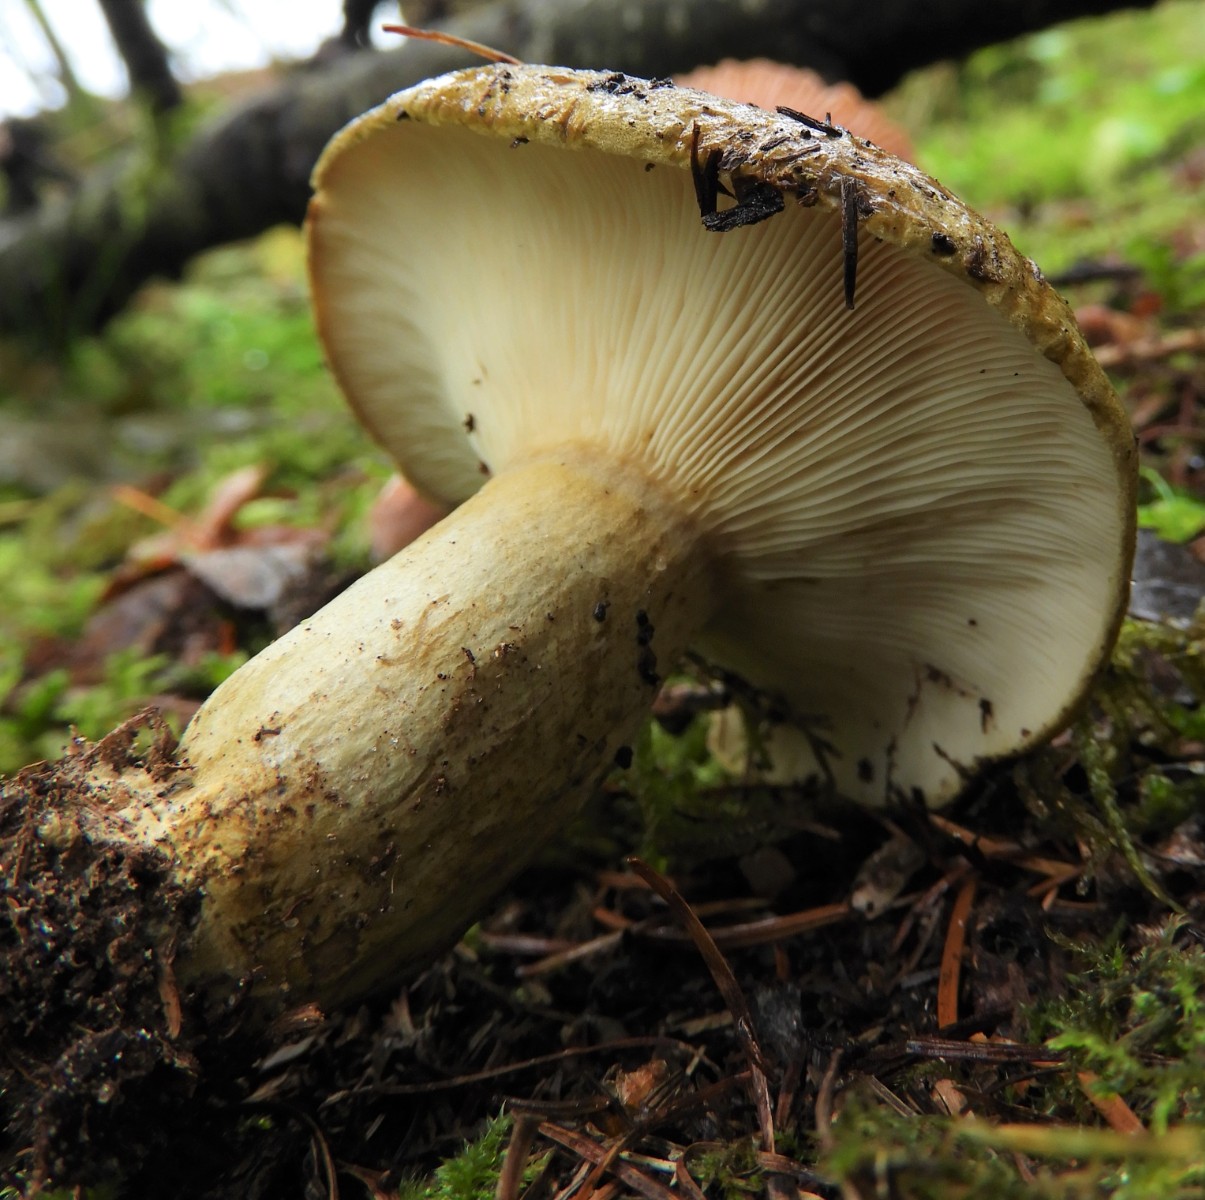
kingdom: Fungi
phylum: Basidiomycota
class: Agaricomycetes
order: Russulales
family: Russulaceae
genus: Lactarius
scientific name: Lactarius necator
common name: manddraber-mælkehat
